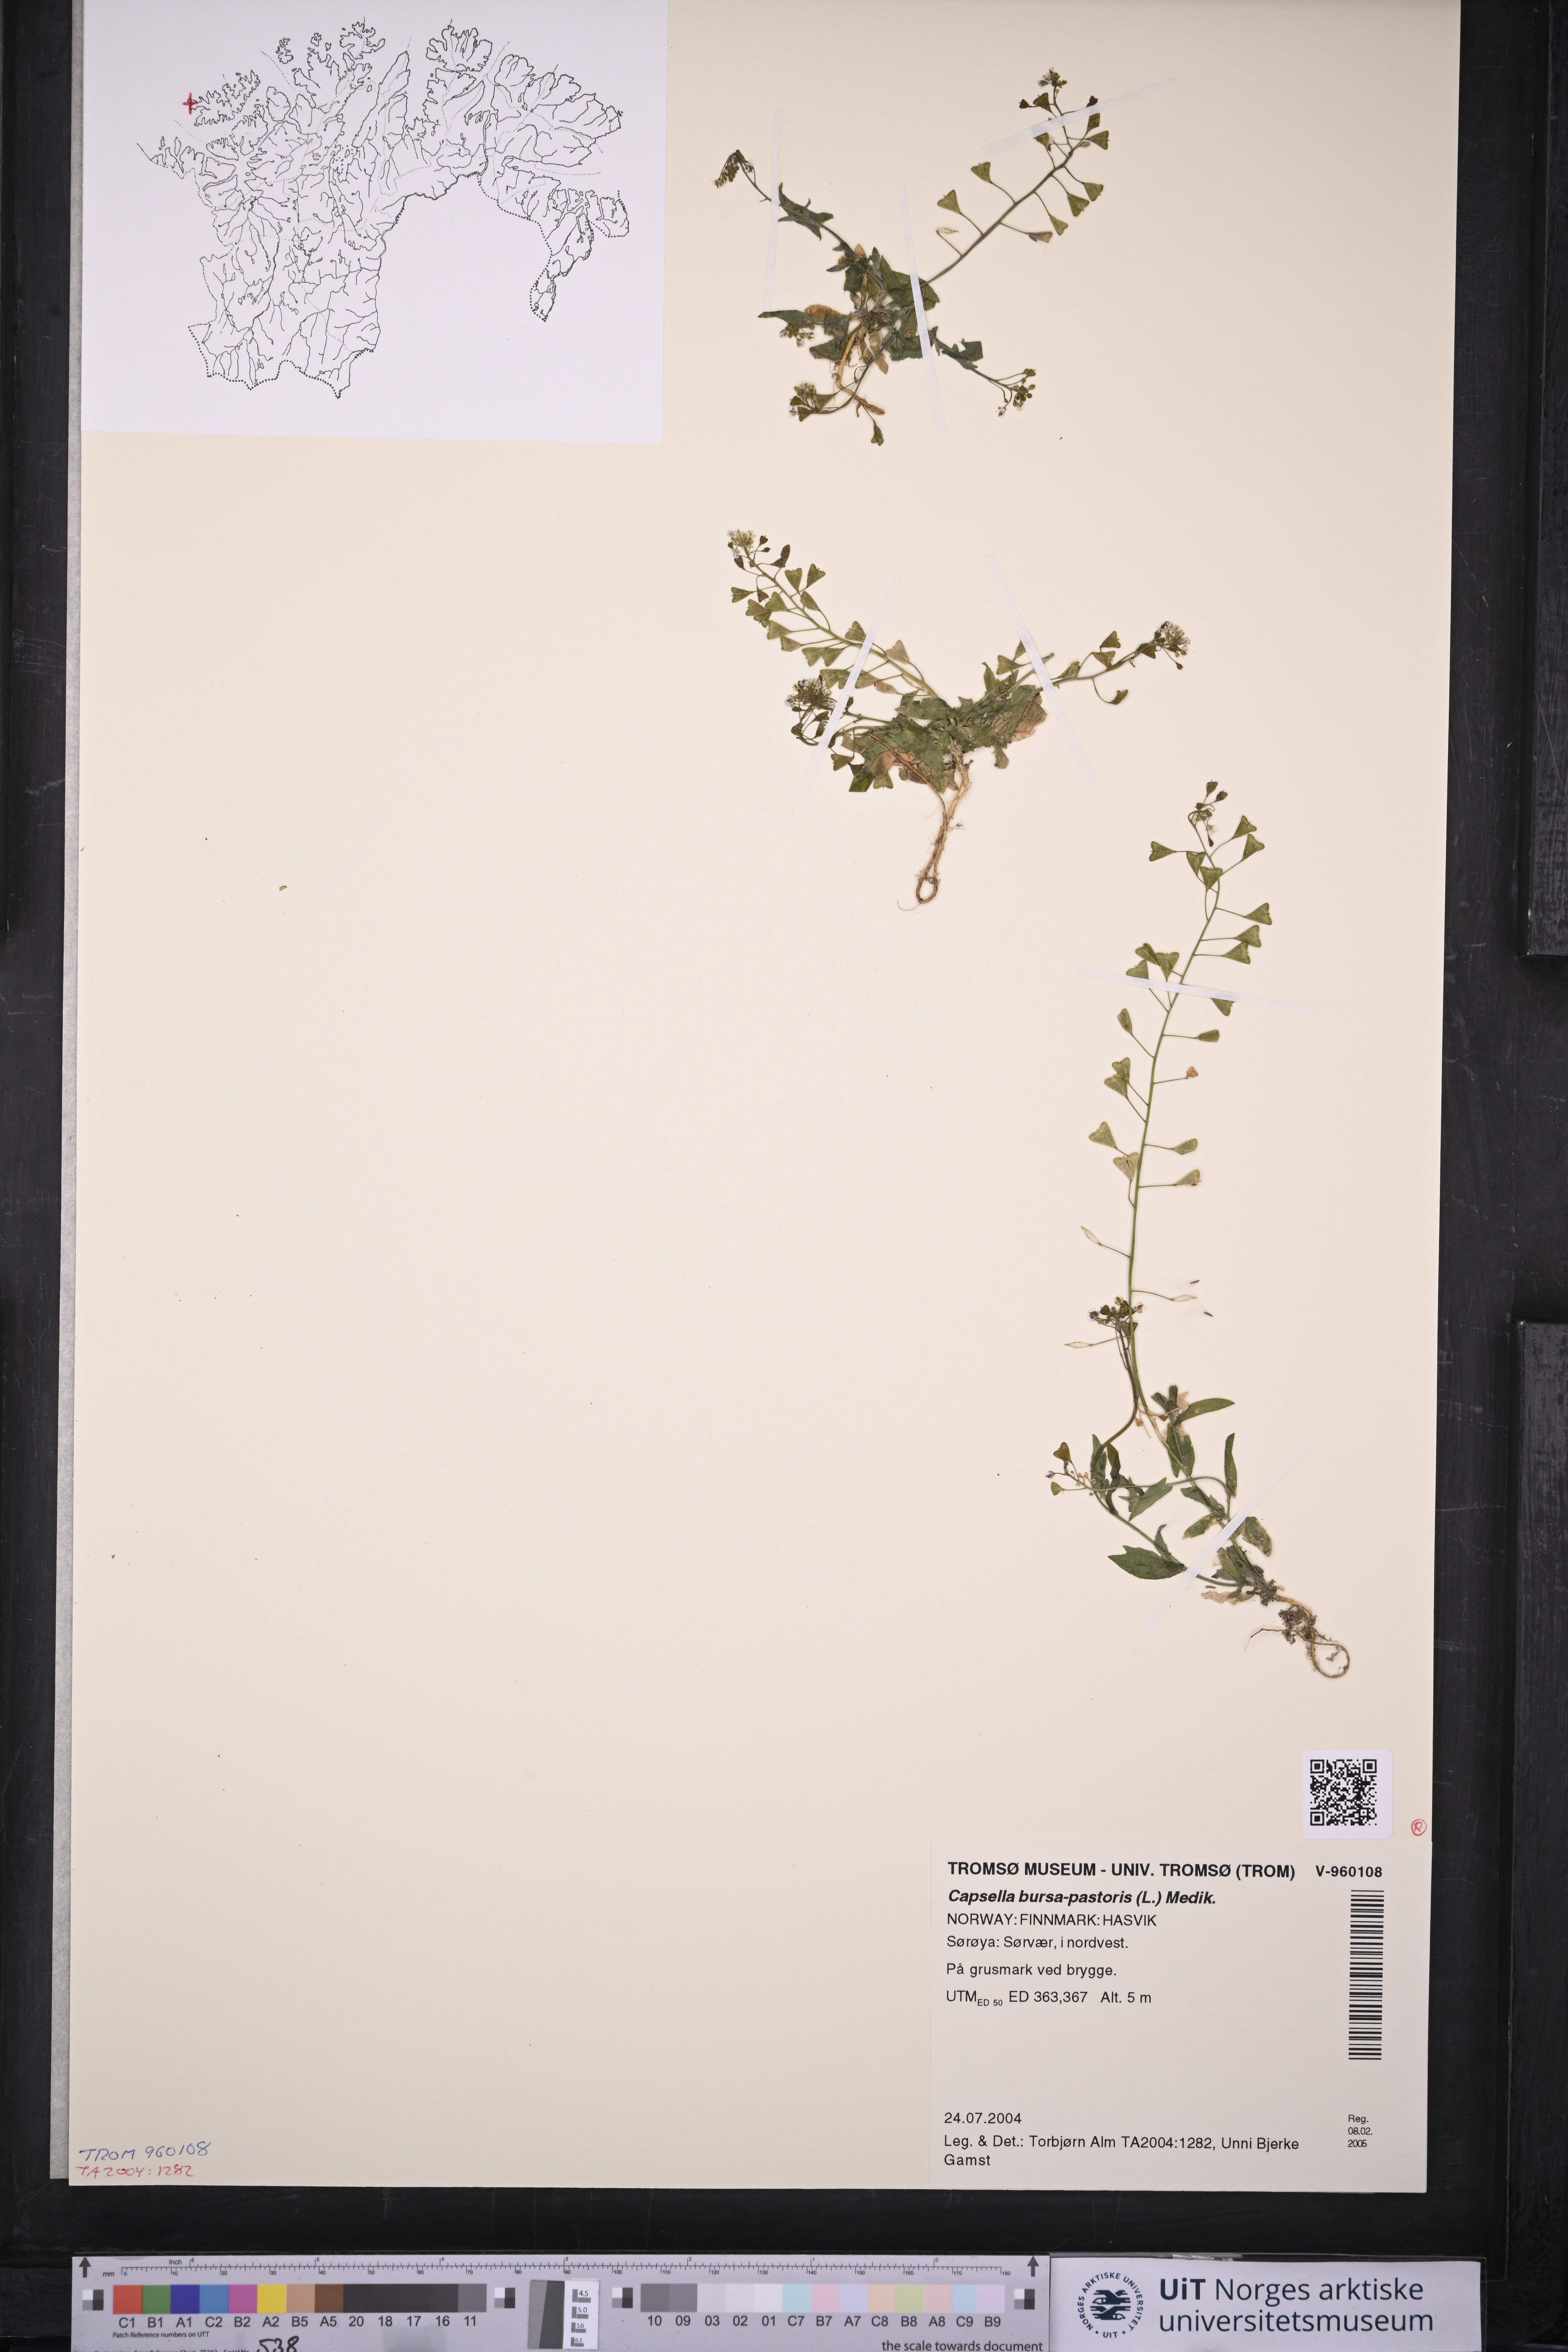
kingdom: Plantae
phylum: Tracheophyta
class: Magnoliopsida
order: Brassicales
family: Brassicaceae
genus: Capsella
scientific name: Capsella bursa-pastoris
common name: Shepherd's purse
